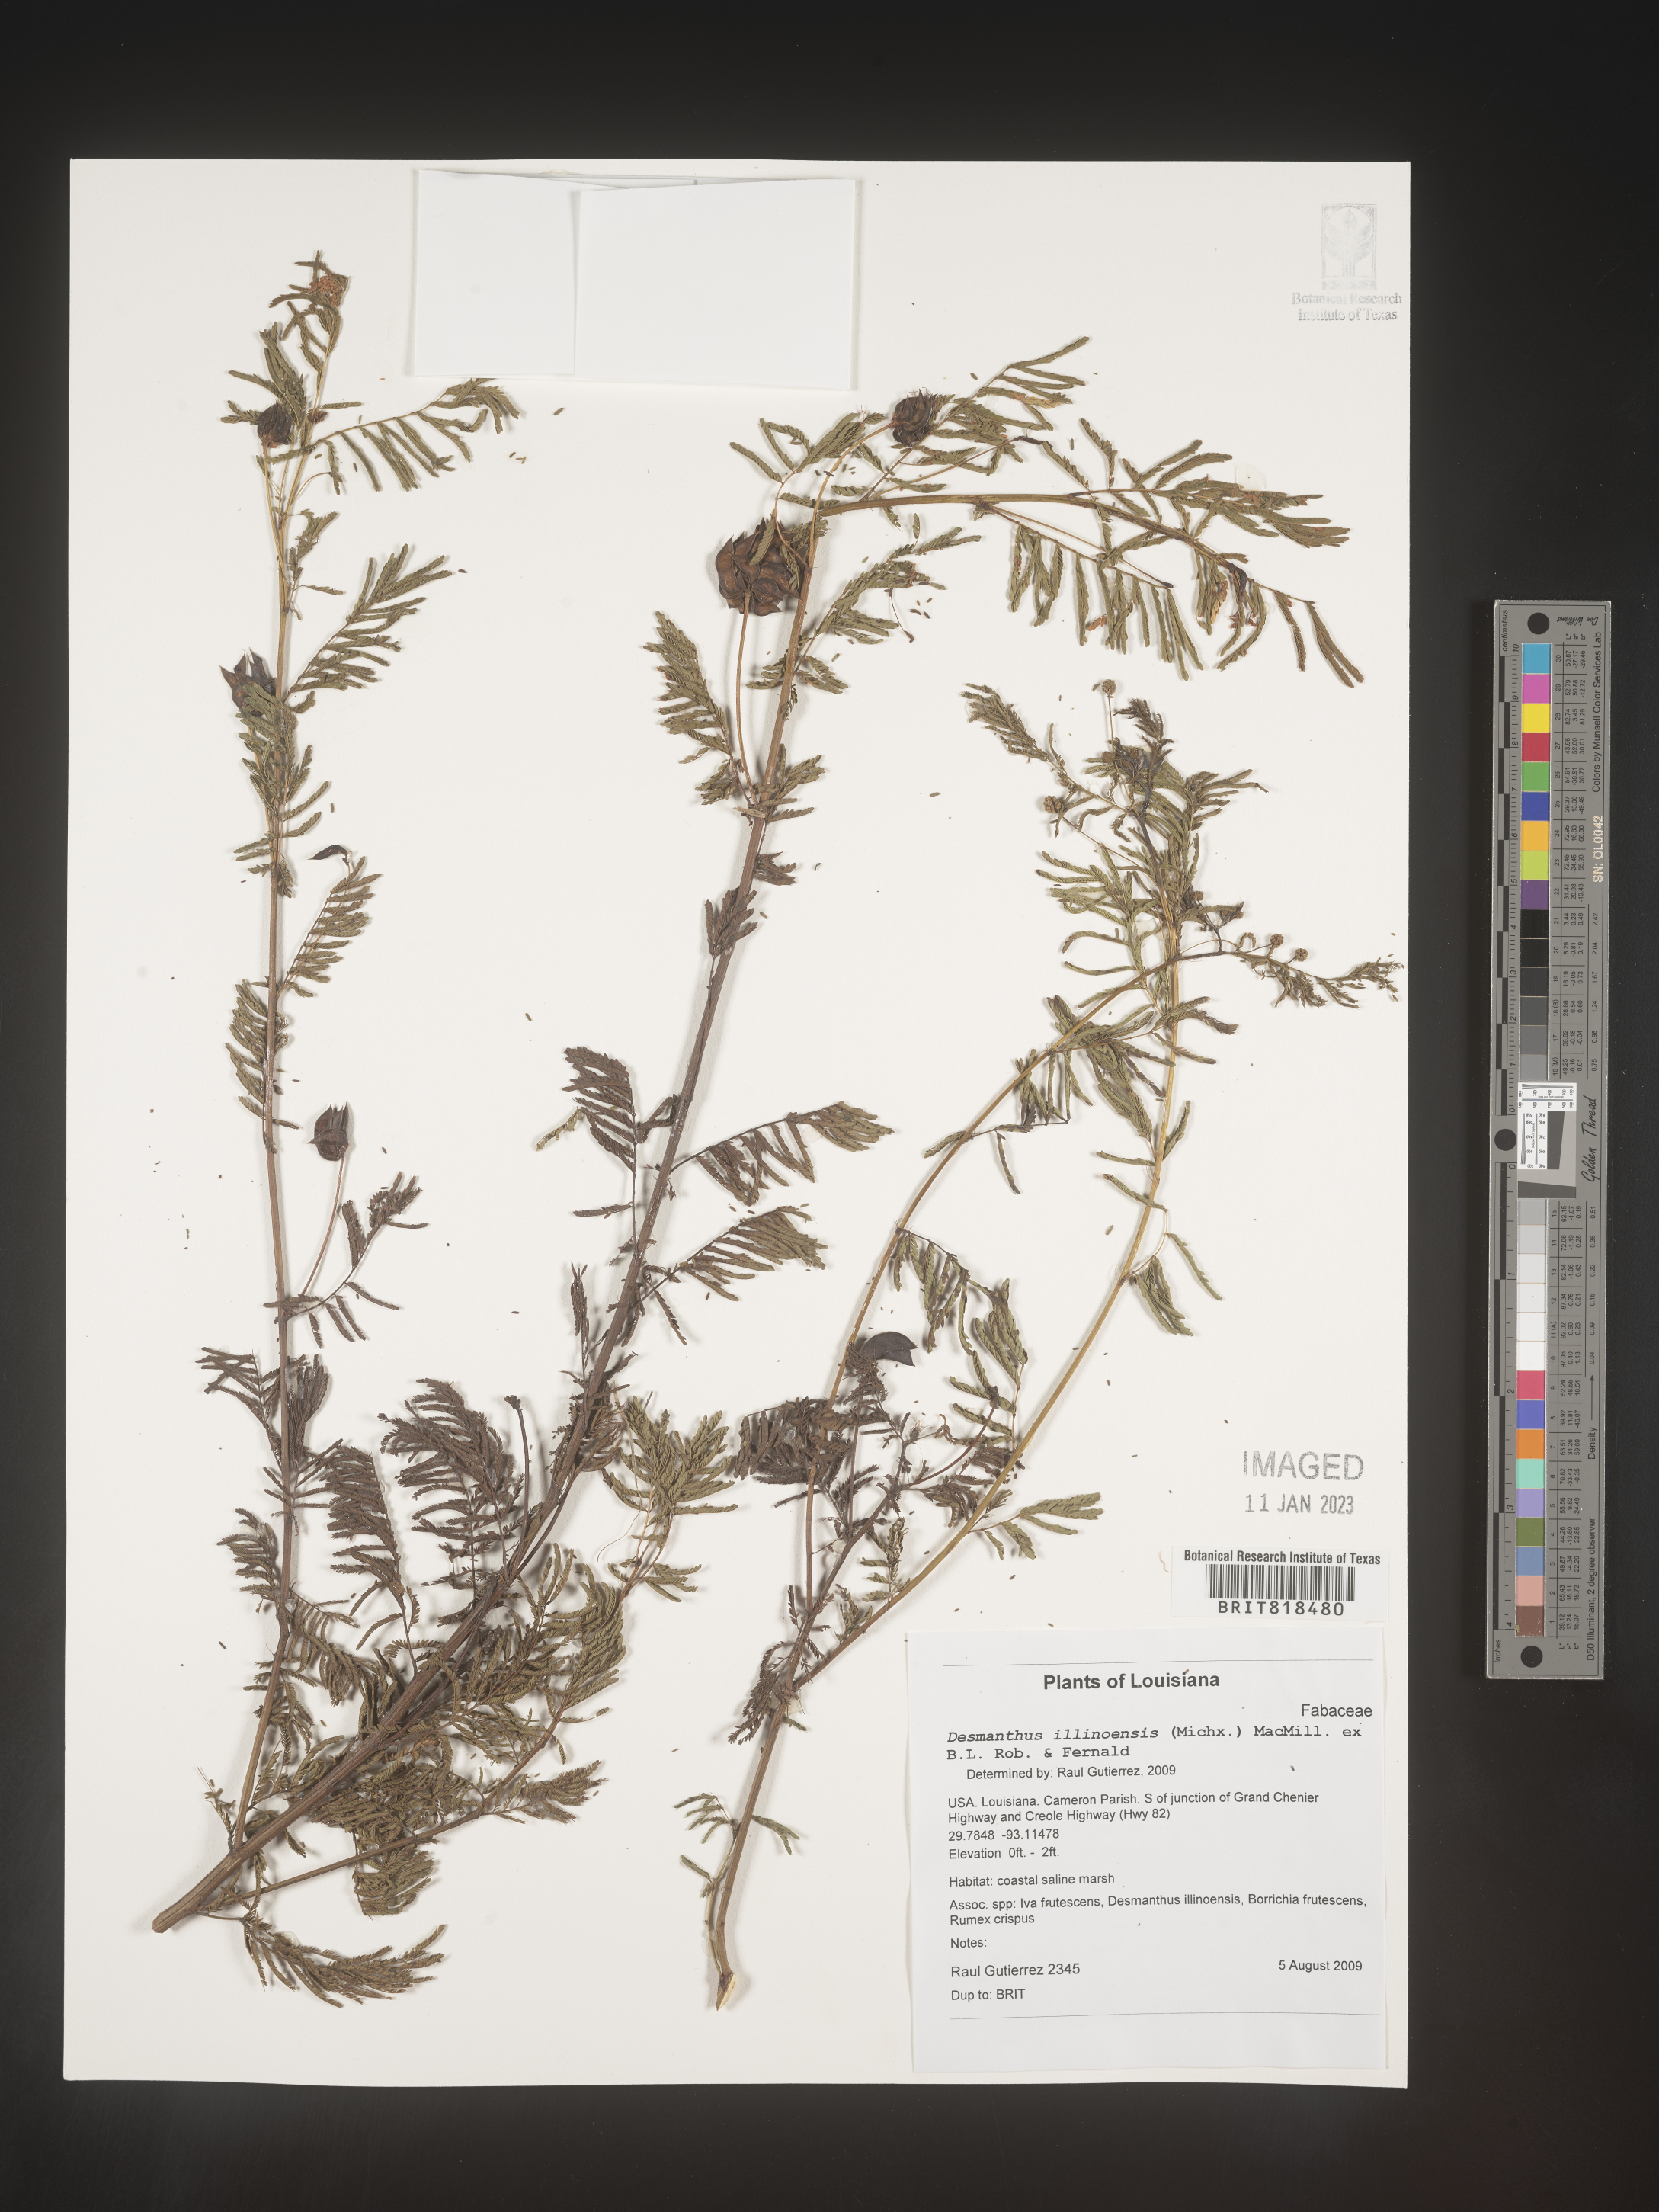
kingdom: Plantae
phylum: Tracheophyta
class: Magnoliopsida
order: Fabales
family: Fabaceae
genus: Desmanthus
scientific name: Desmanthus illinoensis
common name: Illinois bundle-flower
